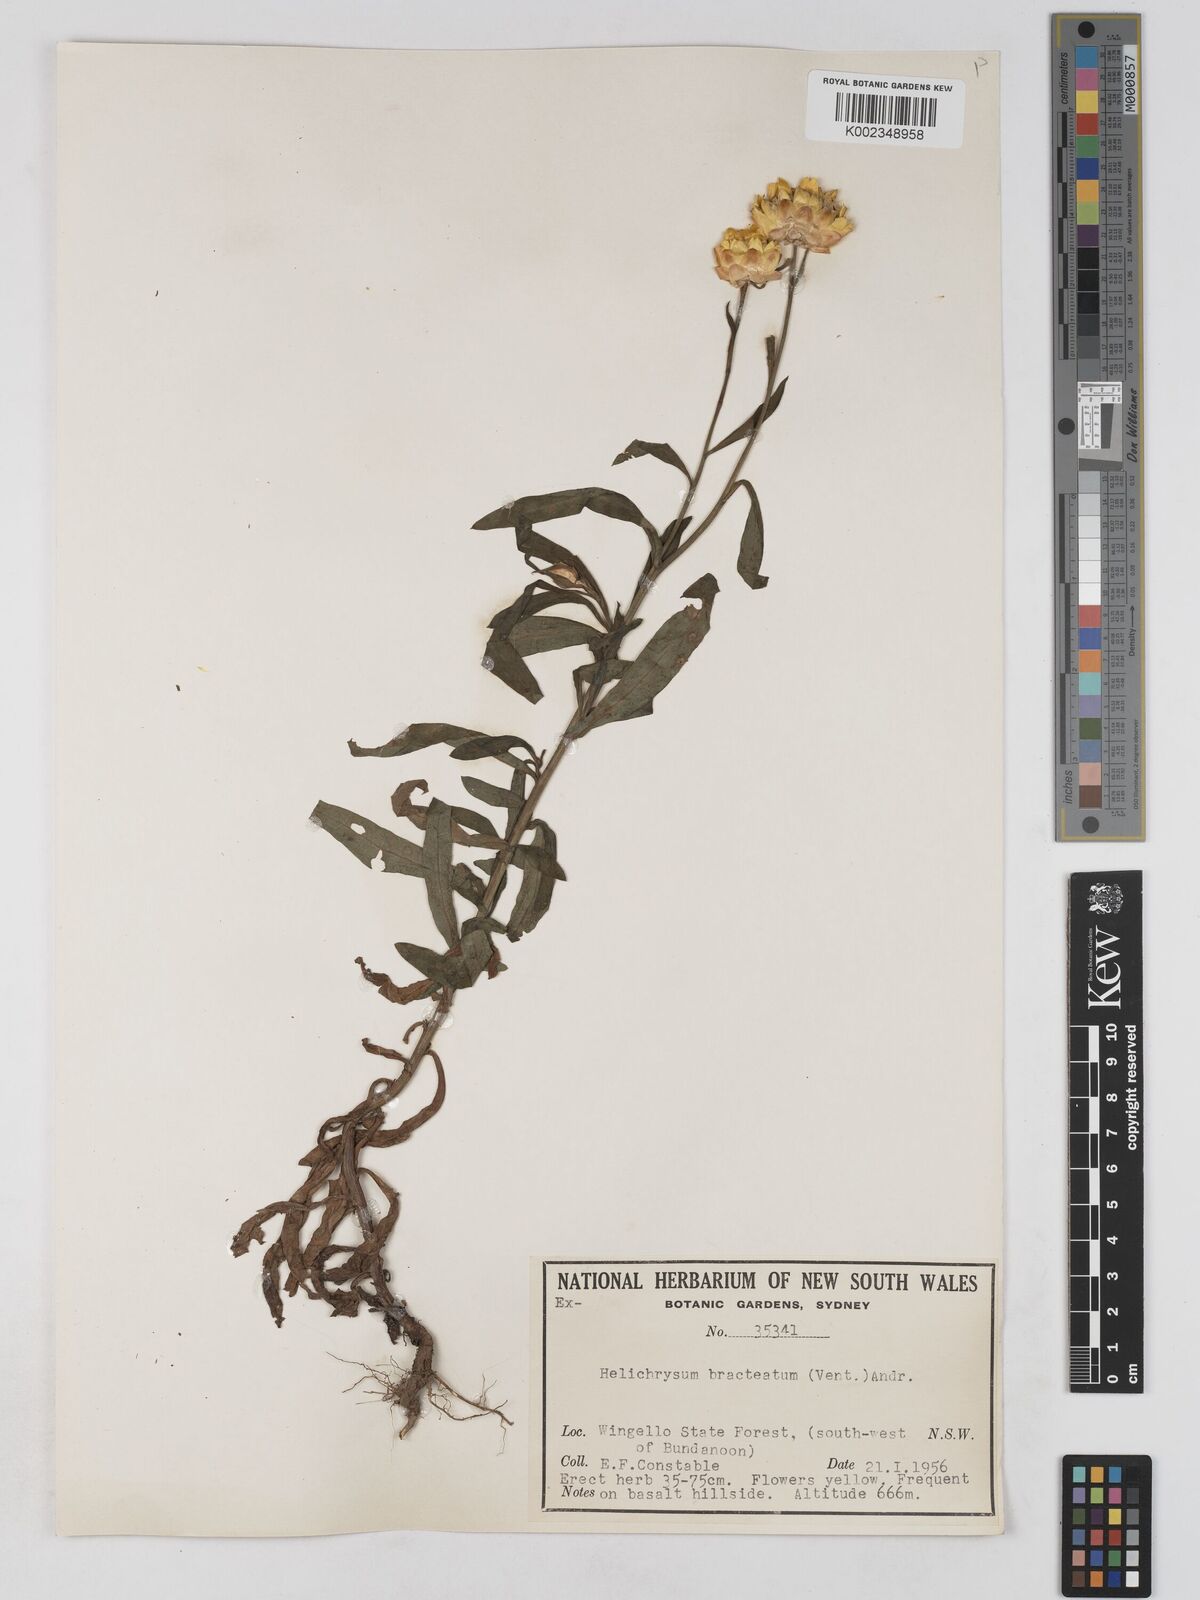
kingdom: Plantae
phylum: Tracheophyta
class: Magnoliopsida
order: Asterales
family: Asteraceae
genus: Xerochrysum
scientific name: Xerochrysum bracteatum
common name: Bracted strawflower
